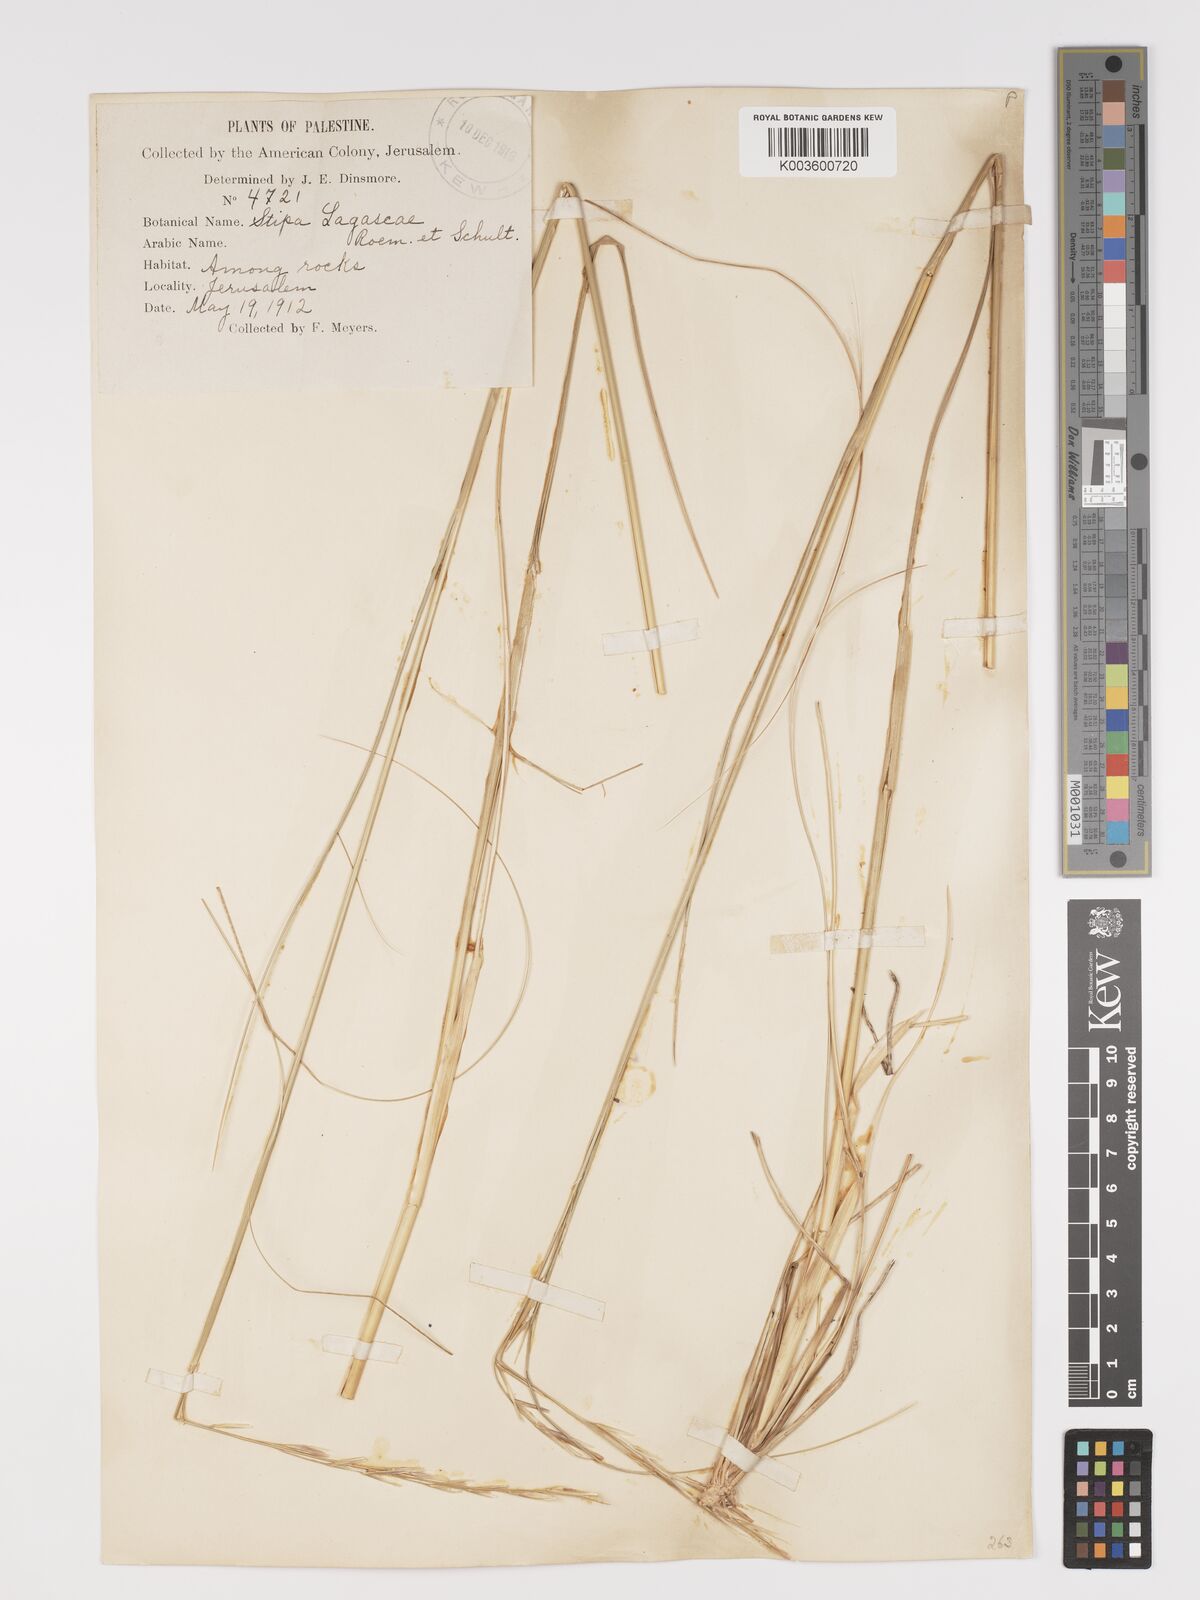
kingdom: Plantae
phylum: Tracheophyta
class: Liliopsida
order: Poales
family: Poaceae
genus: Stipa
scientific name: Stipa holosericea
